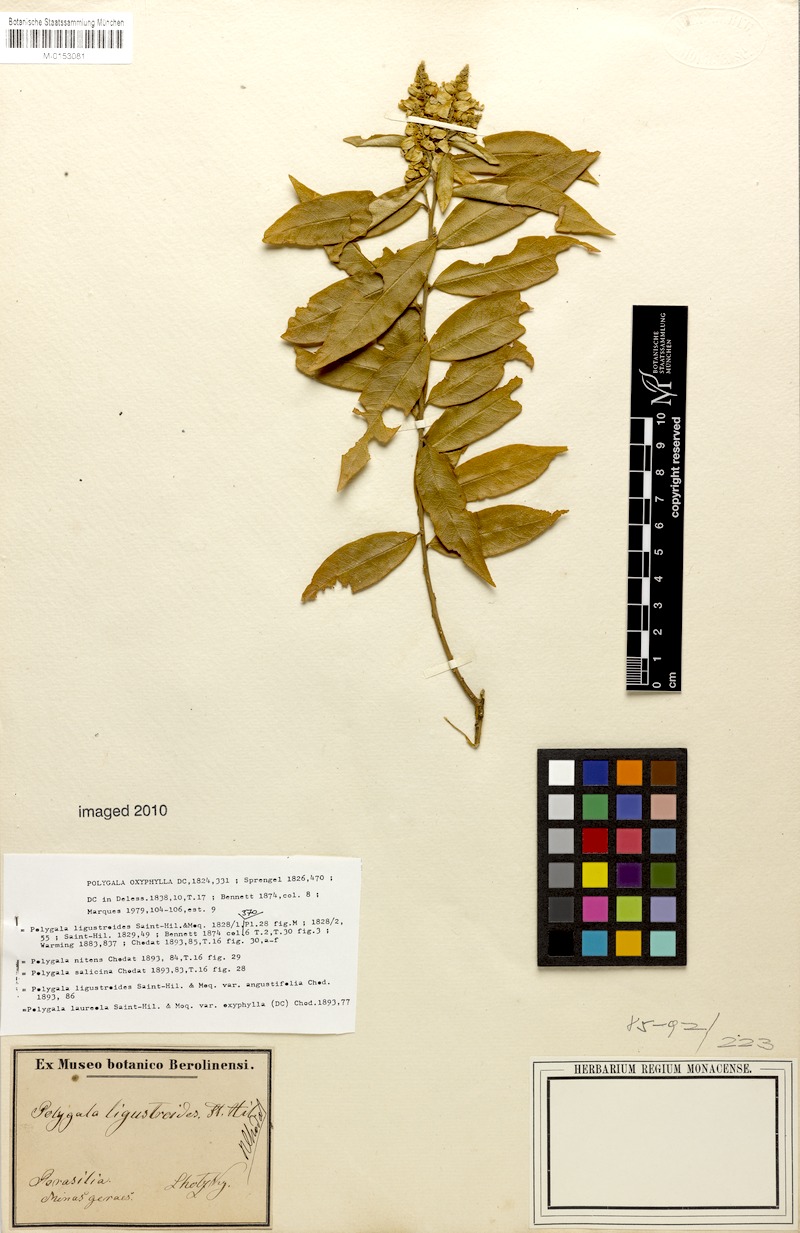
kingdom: Plantae
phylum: Tracheophyta
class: Magnoliopsida
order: Fabales
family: Polygalaceae
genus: Caamembeca
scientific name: Caamembeca oxyphylla
